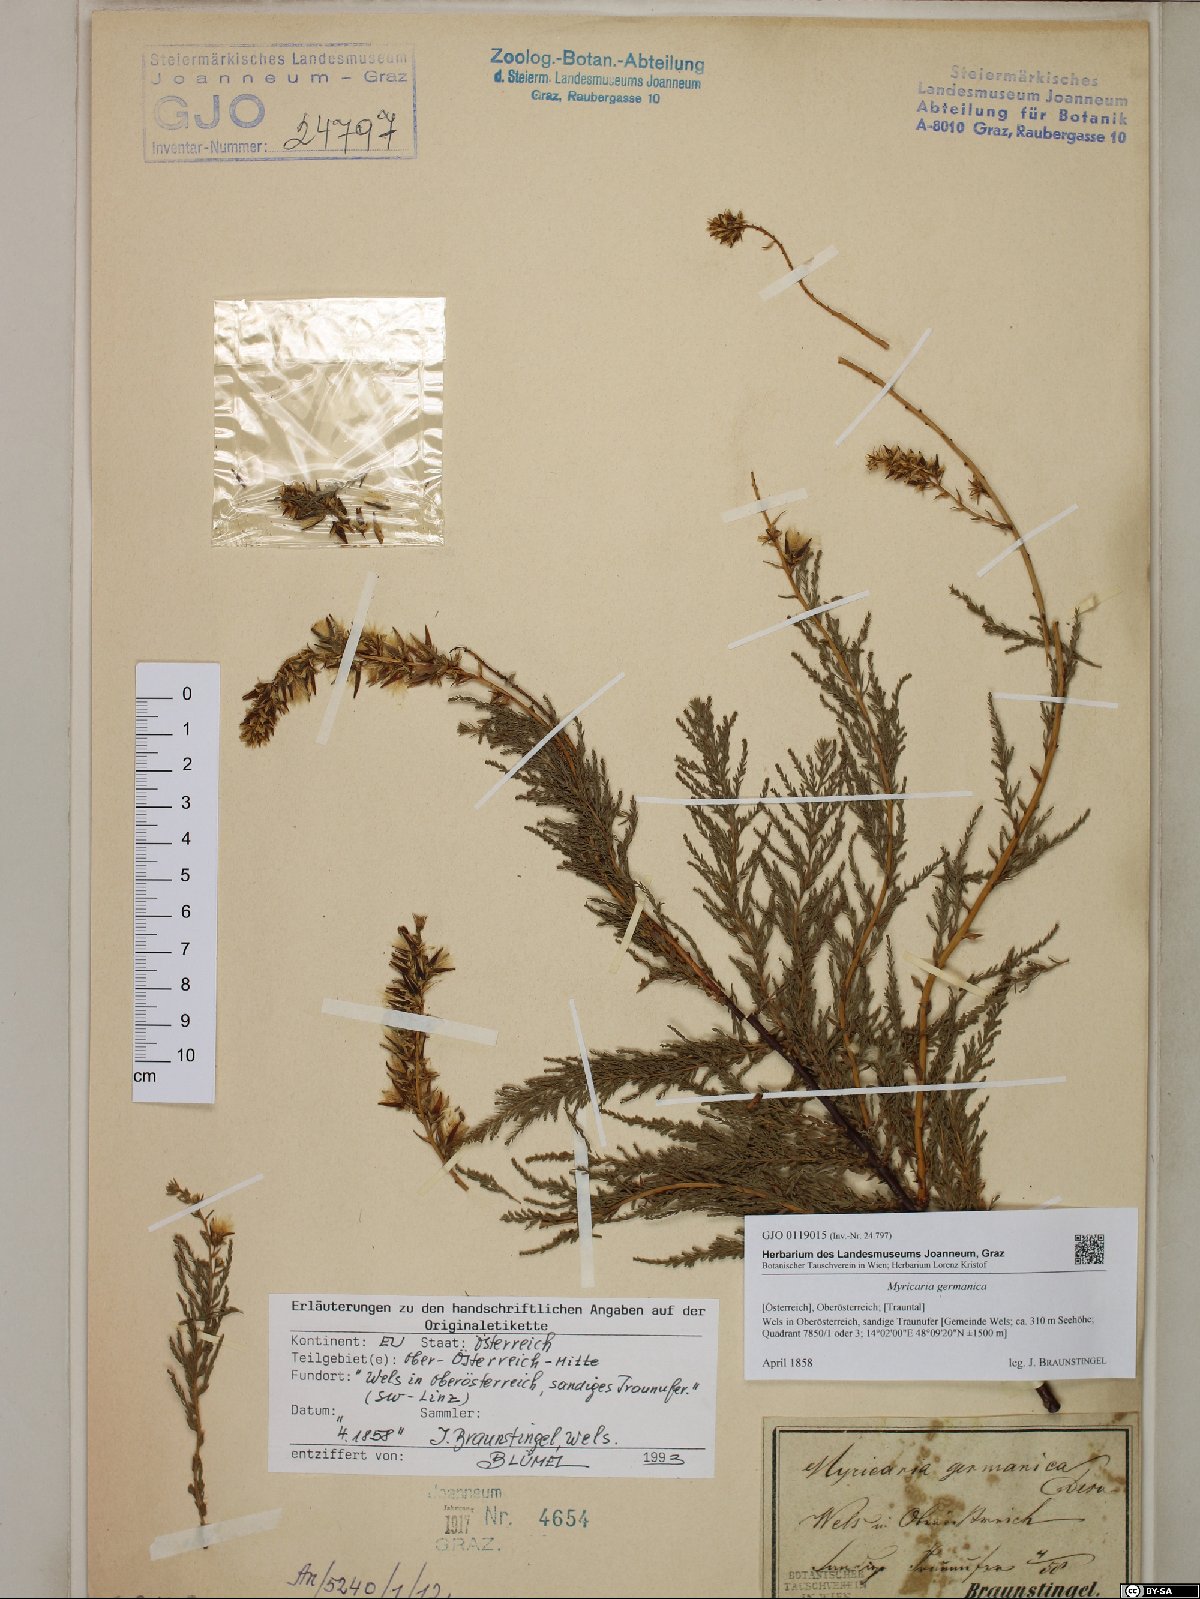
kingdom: Plantae
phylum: Tracheophyta
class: Magnoliopsida
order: Caryophyllales
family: Tamaricaceae
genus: Myricaria
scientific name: Myricaria germanica
